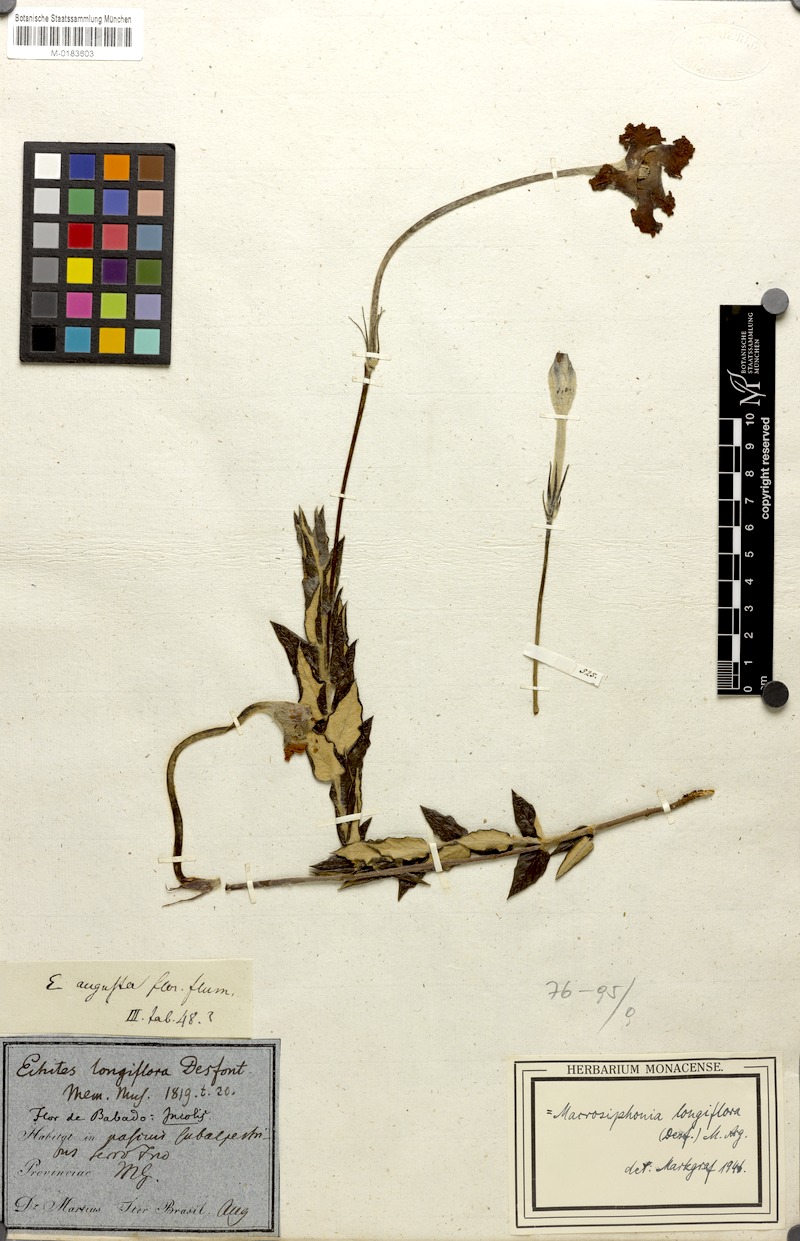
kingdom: Plantae
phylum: Tracheophyta
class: Magnoliopsida
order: Gentianales
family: Apocynaceae
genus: Mandevilla
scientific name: Mandevilla longiflora
